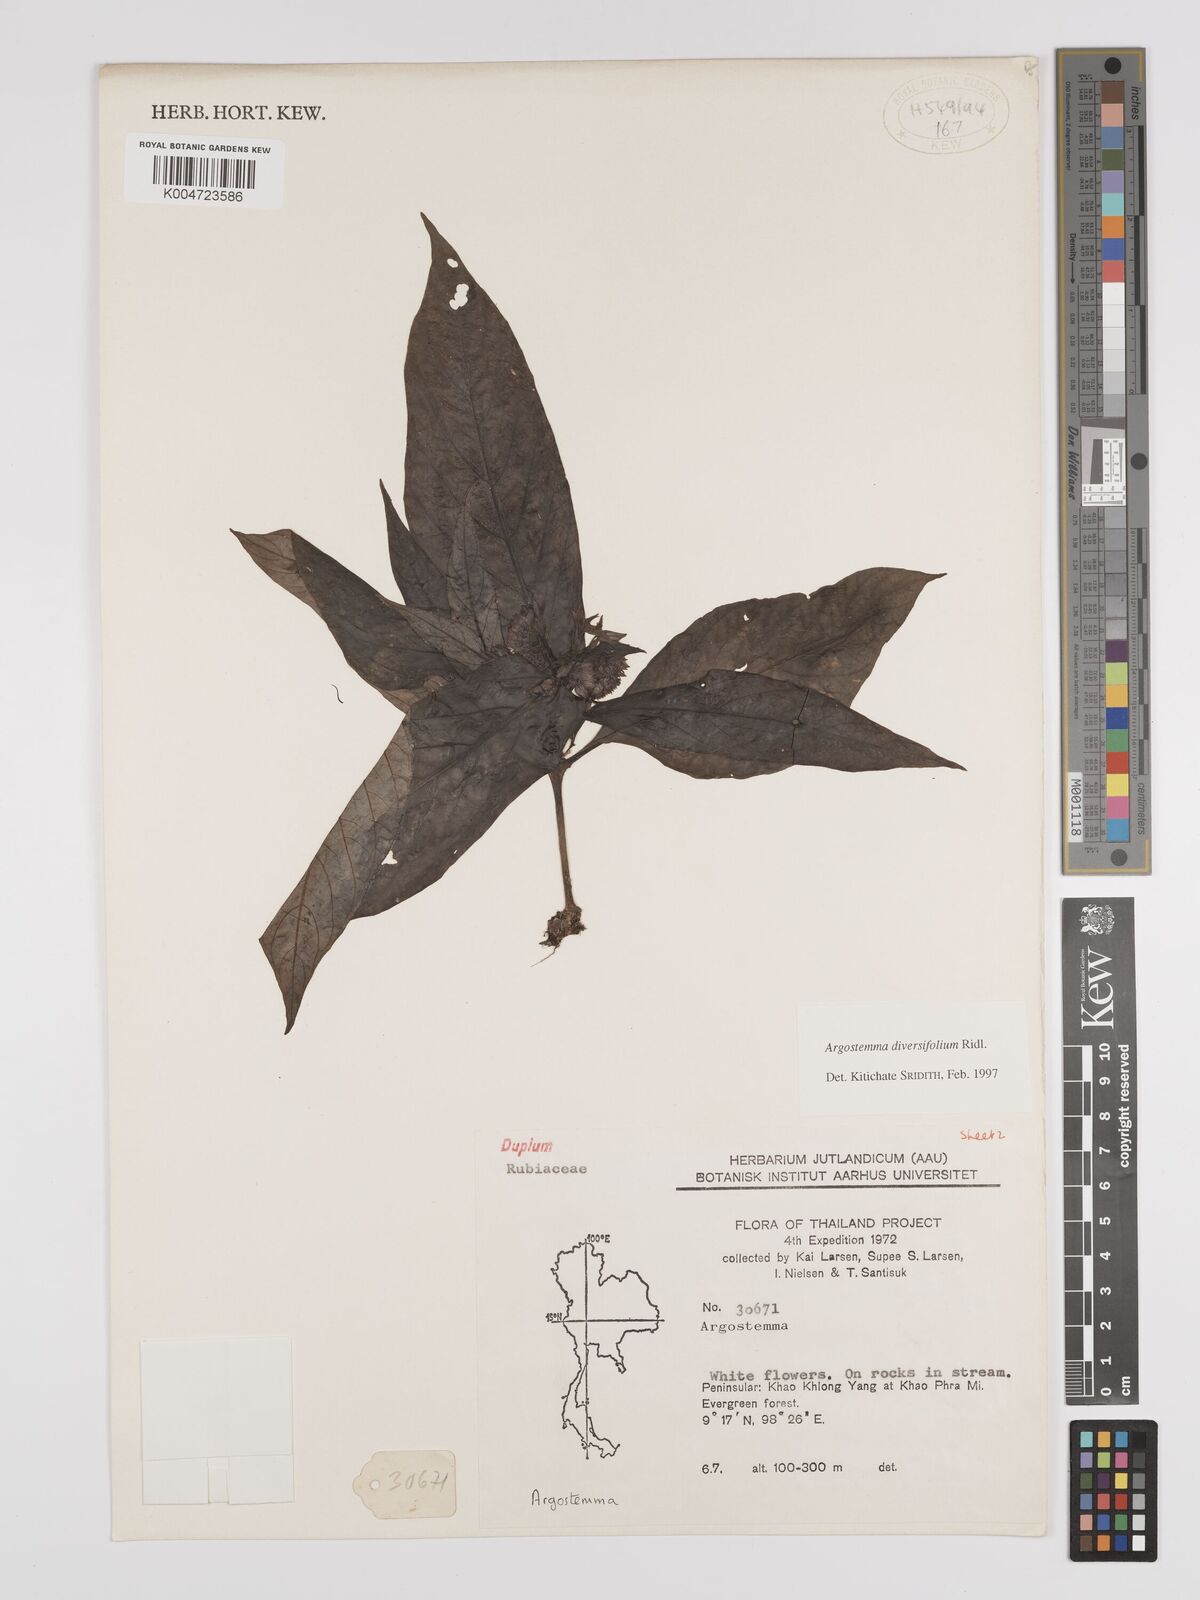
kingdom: Plantae
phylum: Tracheophyta
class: Magnoliopsida
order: Gentianales
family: Rubiaceae
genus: Argostemma
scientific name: Argostemma diversifolium
